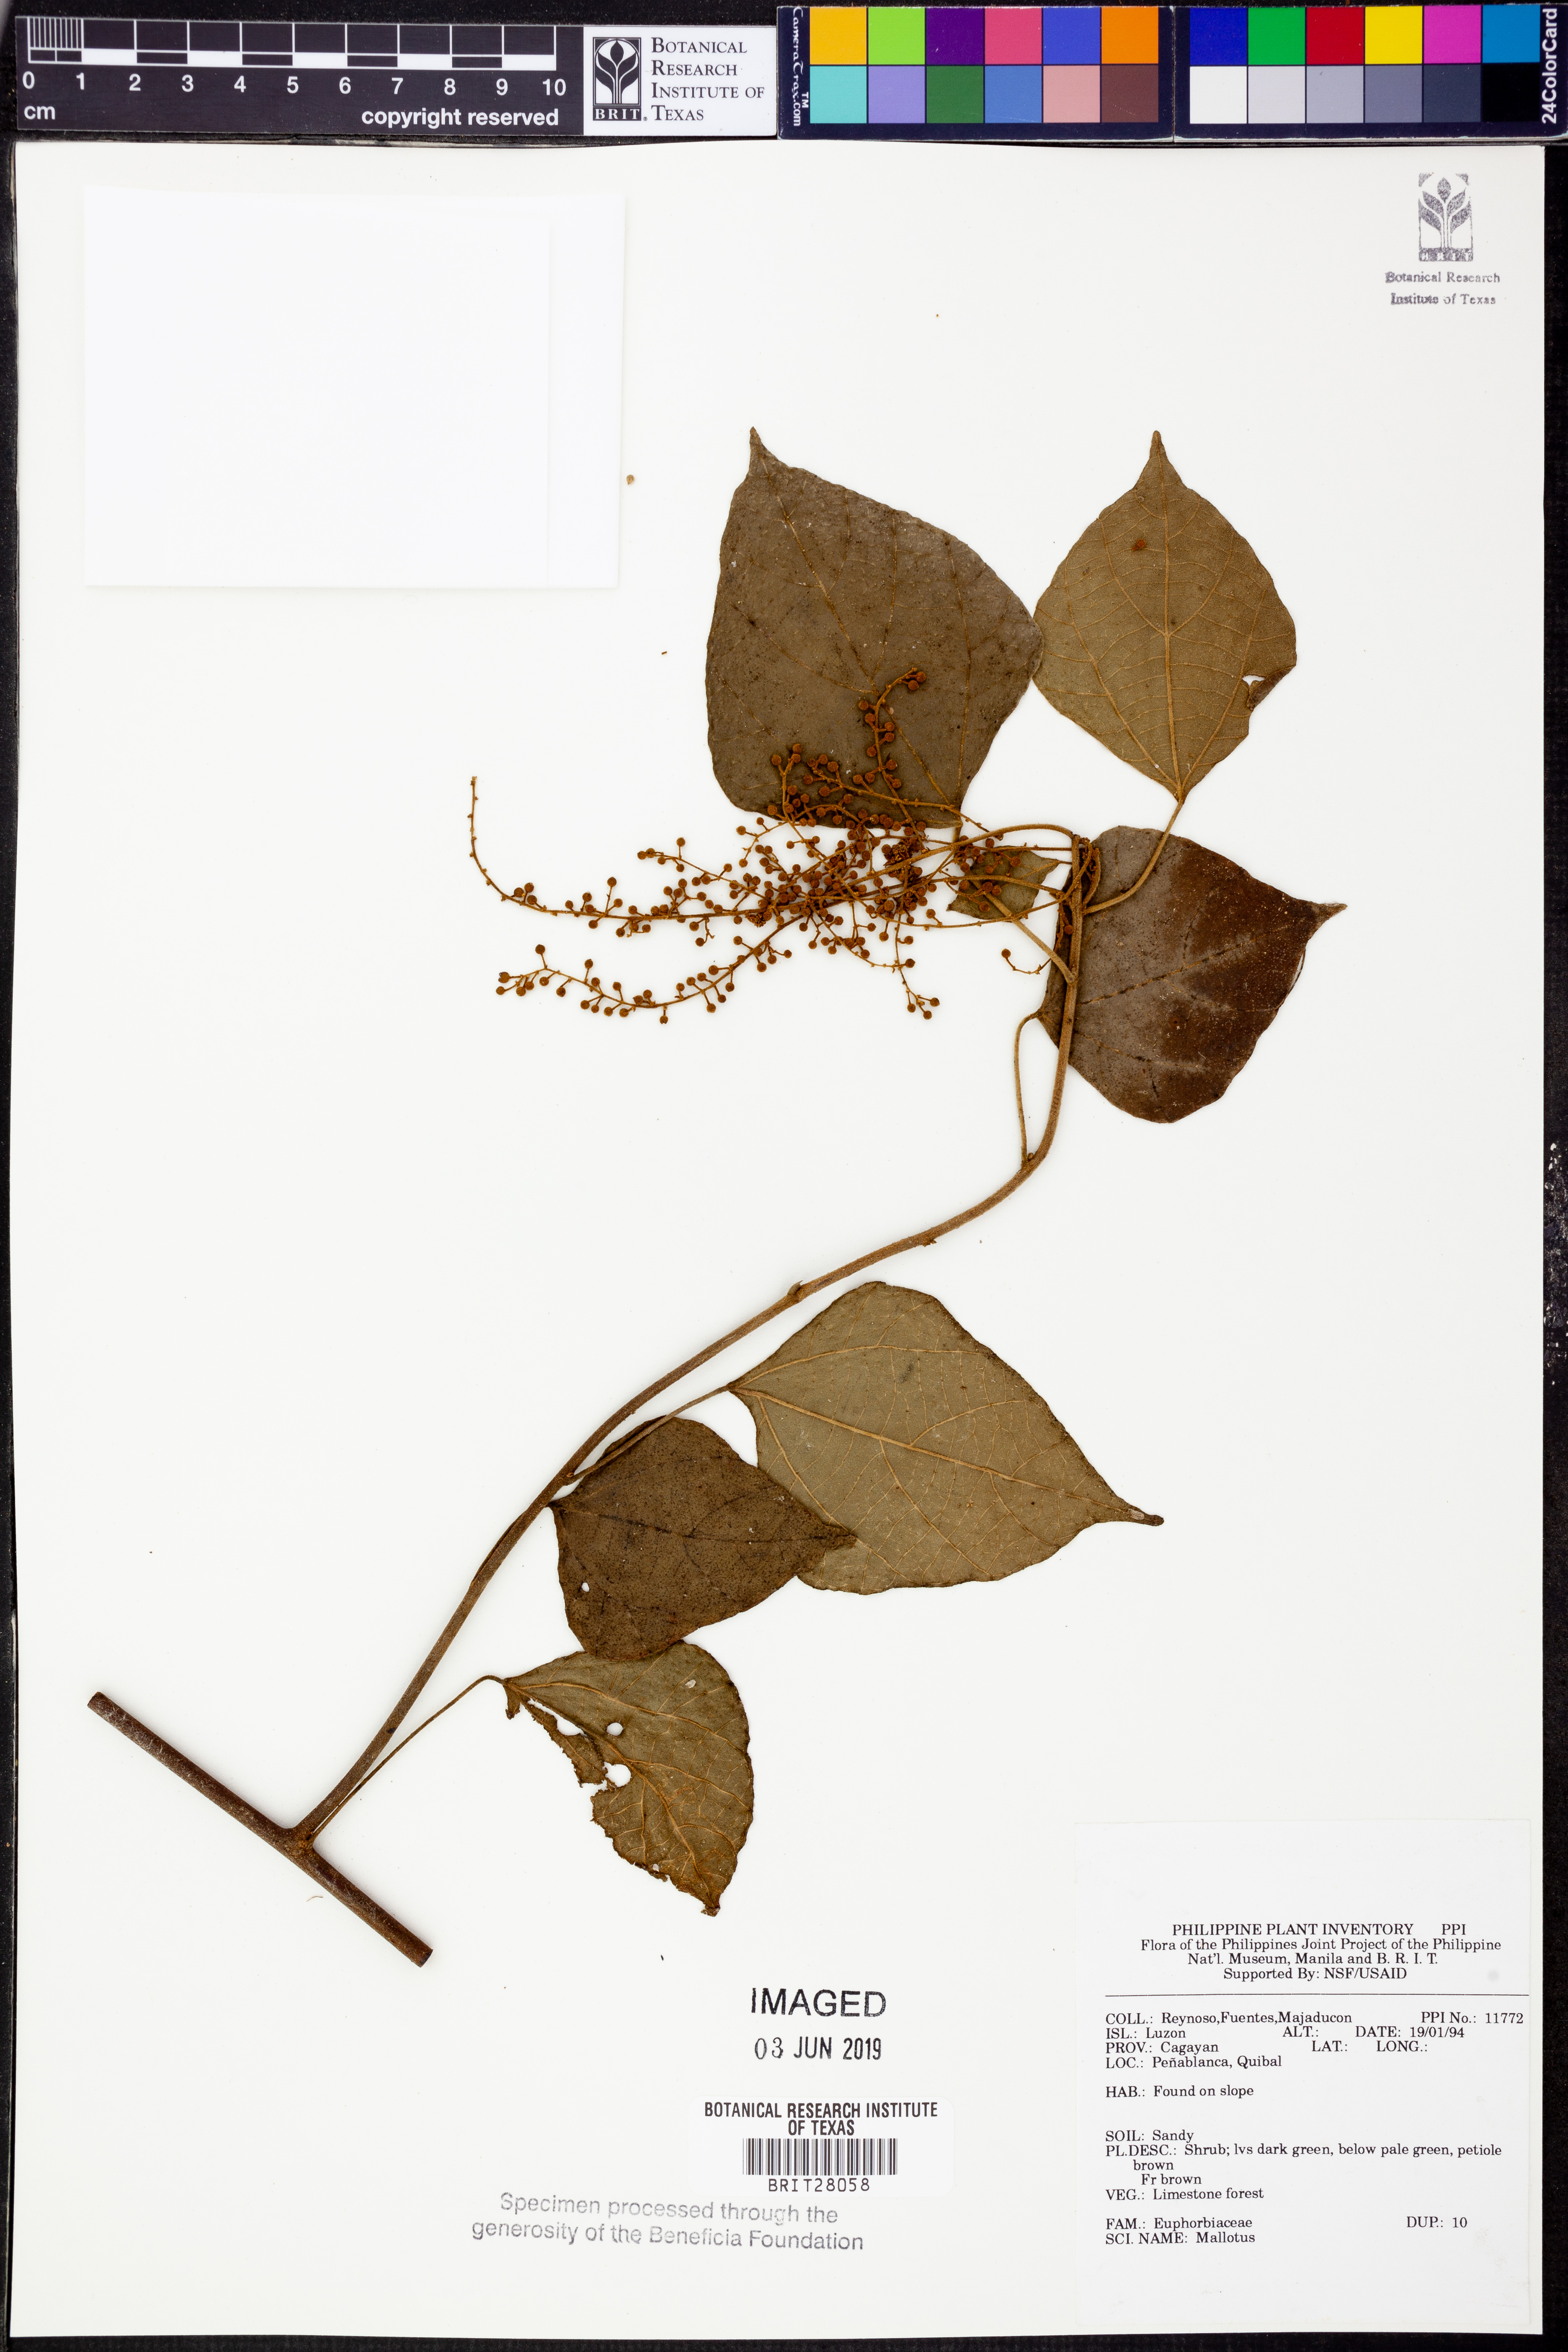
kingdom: Plantae
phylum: Tracheophyta
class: Magnoliopsida
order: Malpighiales
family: Euphorbiaceae
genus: Mallotus
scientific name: Mallotus
